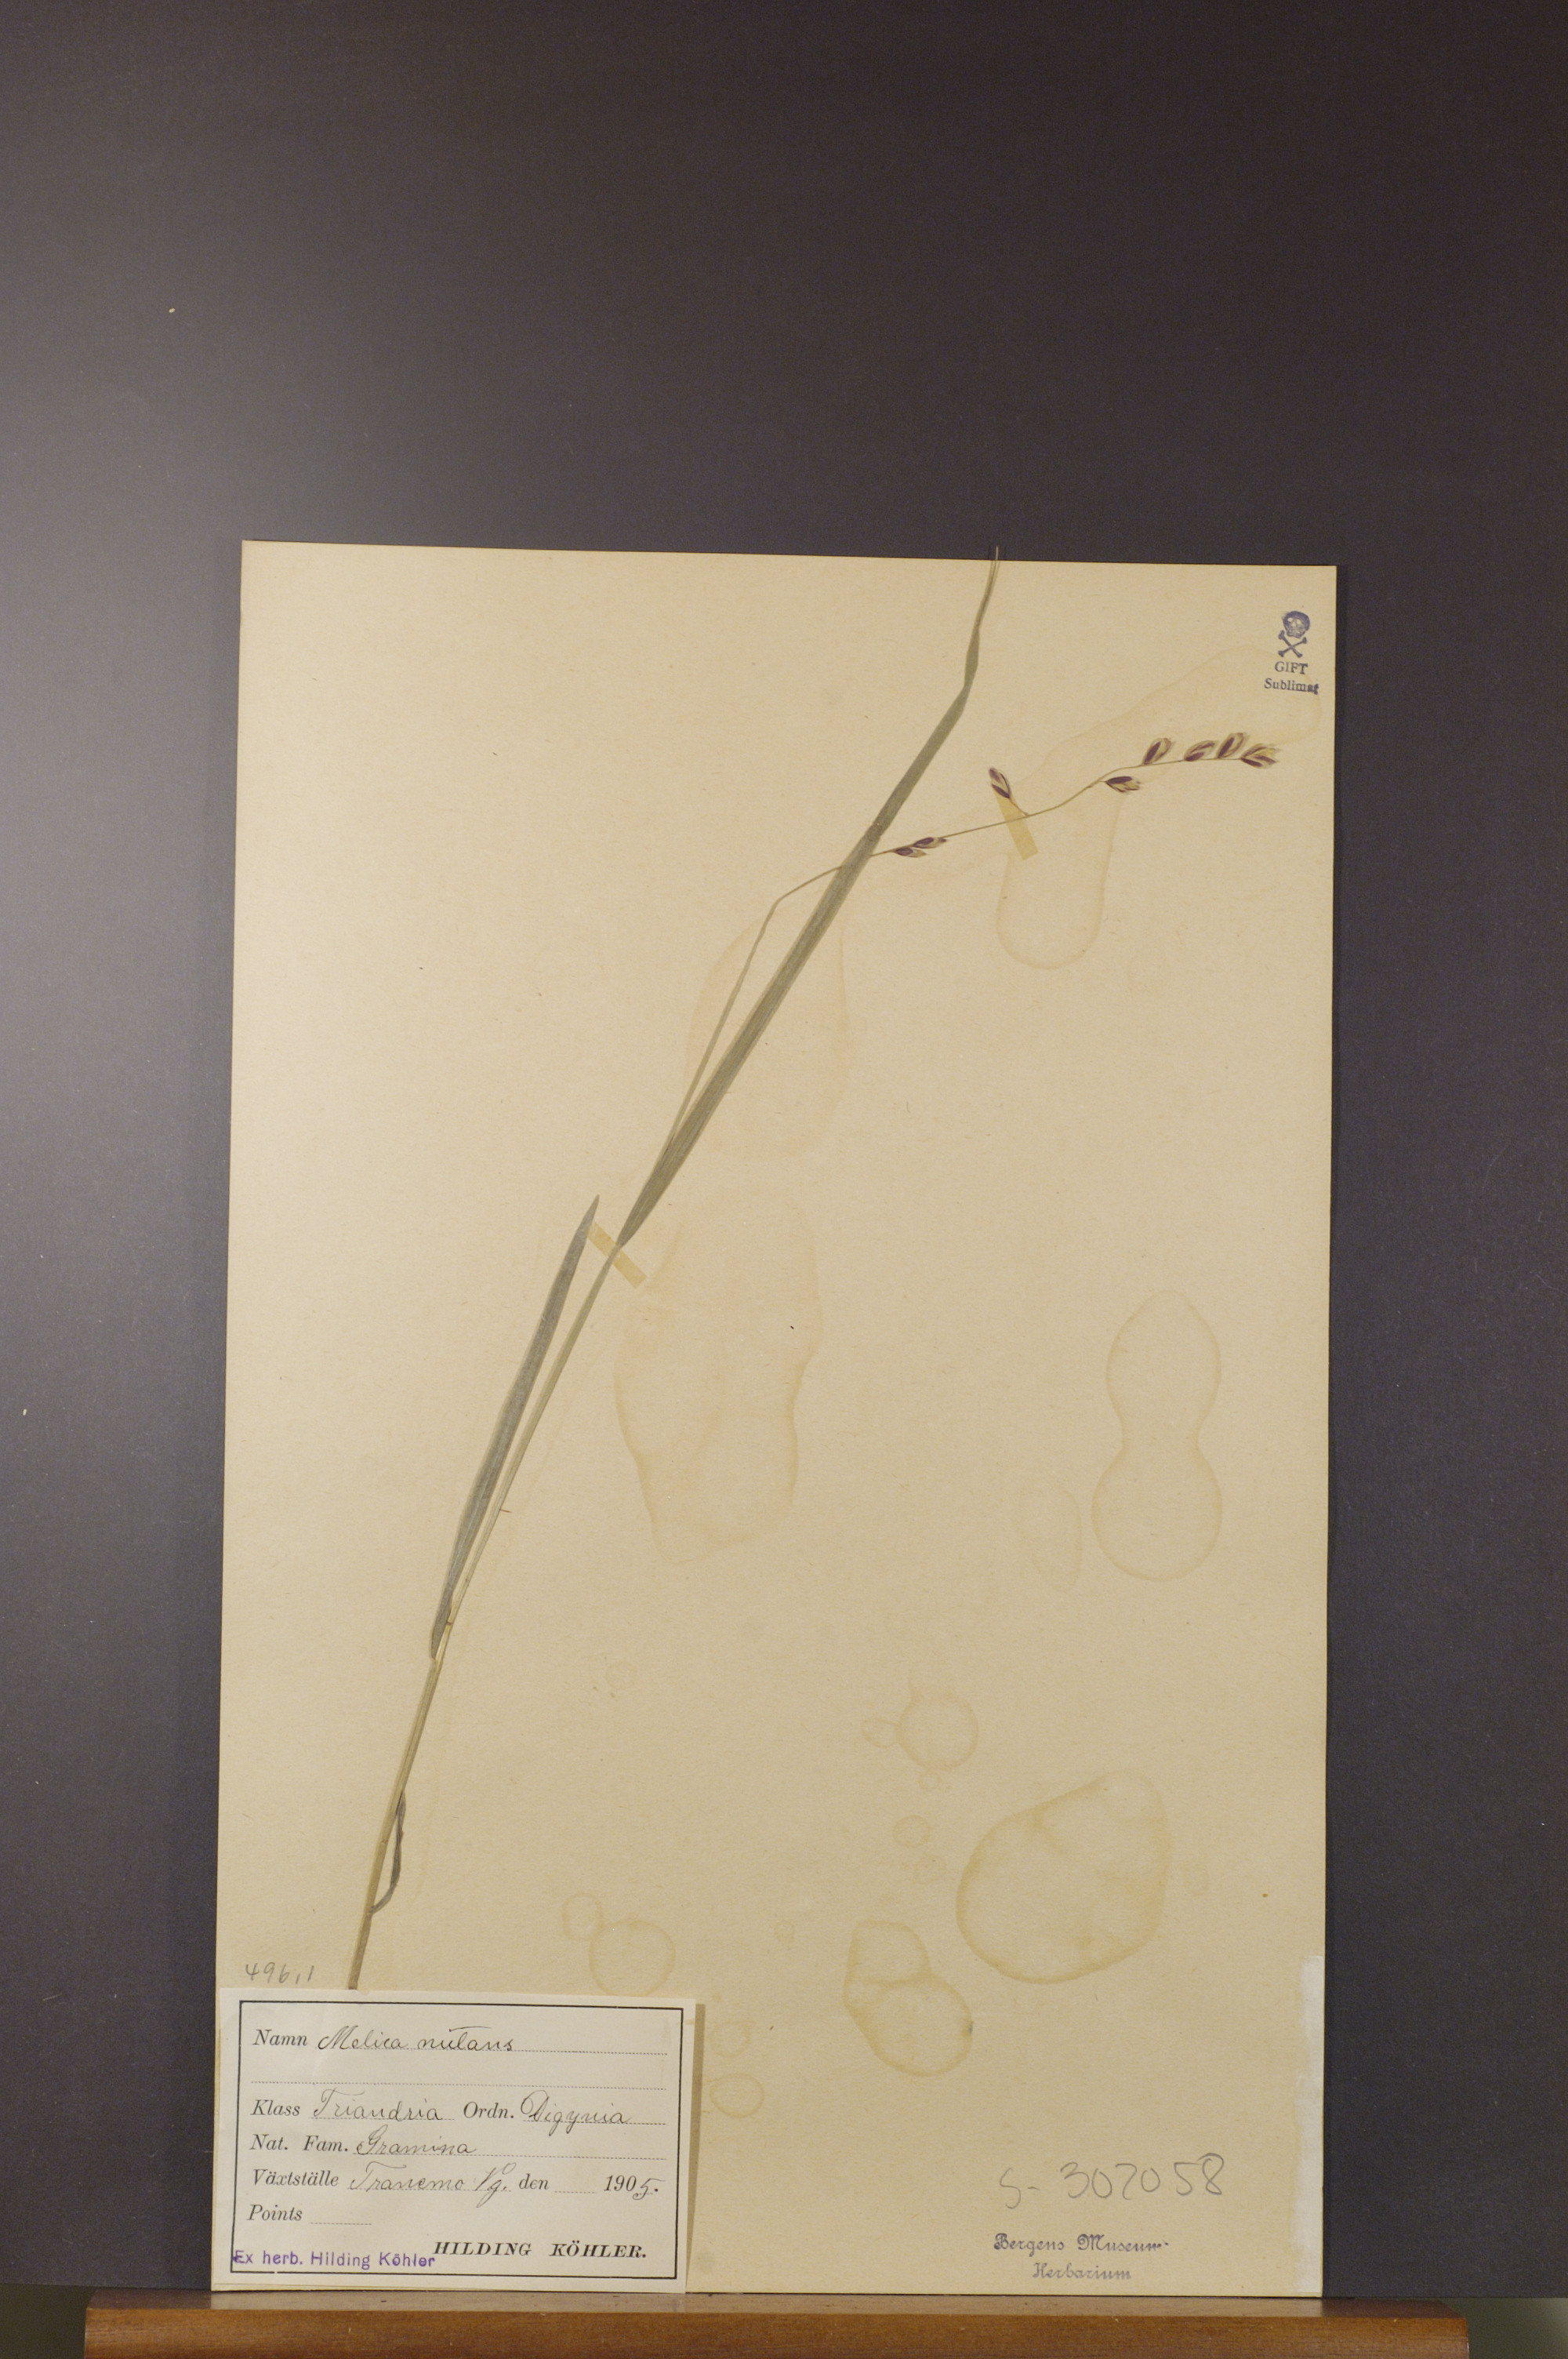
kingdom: Plantae
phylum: Tracheophyta
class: Liliopsida
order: Poales
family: Poaceae
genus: Melica
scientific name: Melica nutans
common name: Mountain melick
